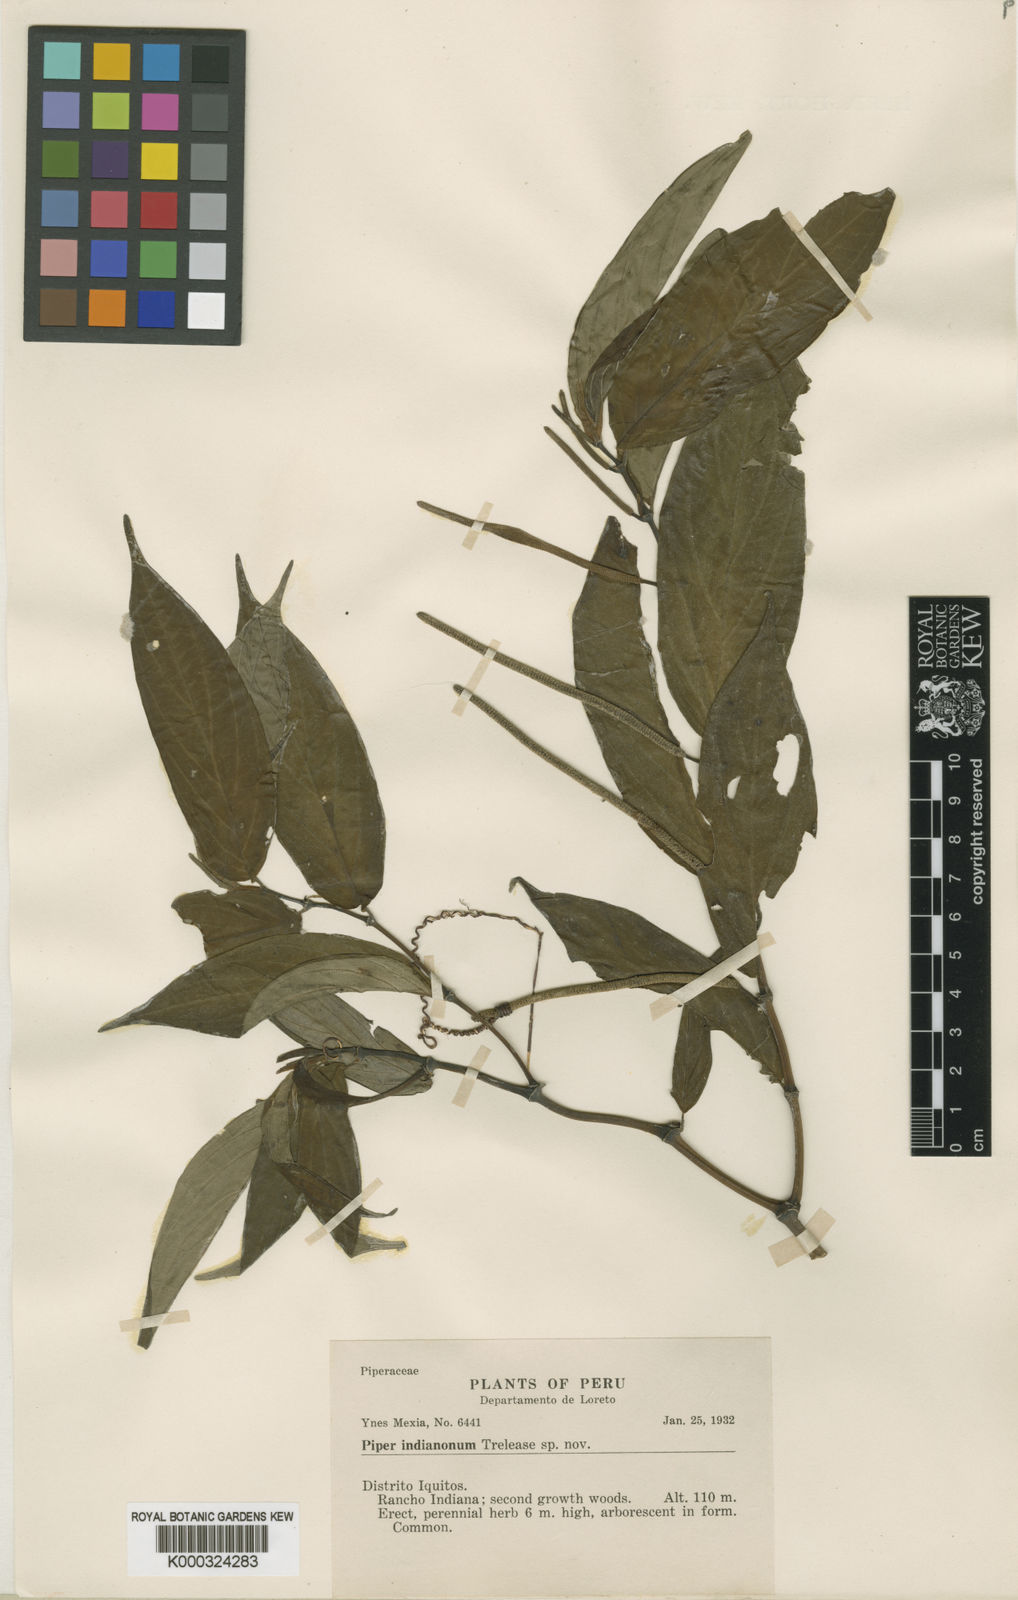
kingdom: Plantae
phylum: Tracheophyta
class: Magnoliopsida
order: Piperales
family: Piperaceae
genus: Piper
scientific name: Piper indianonum
